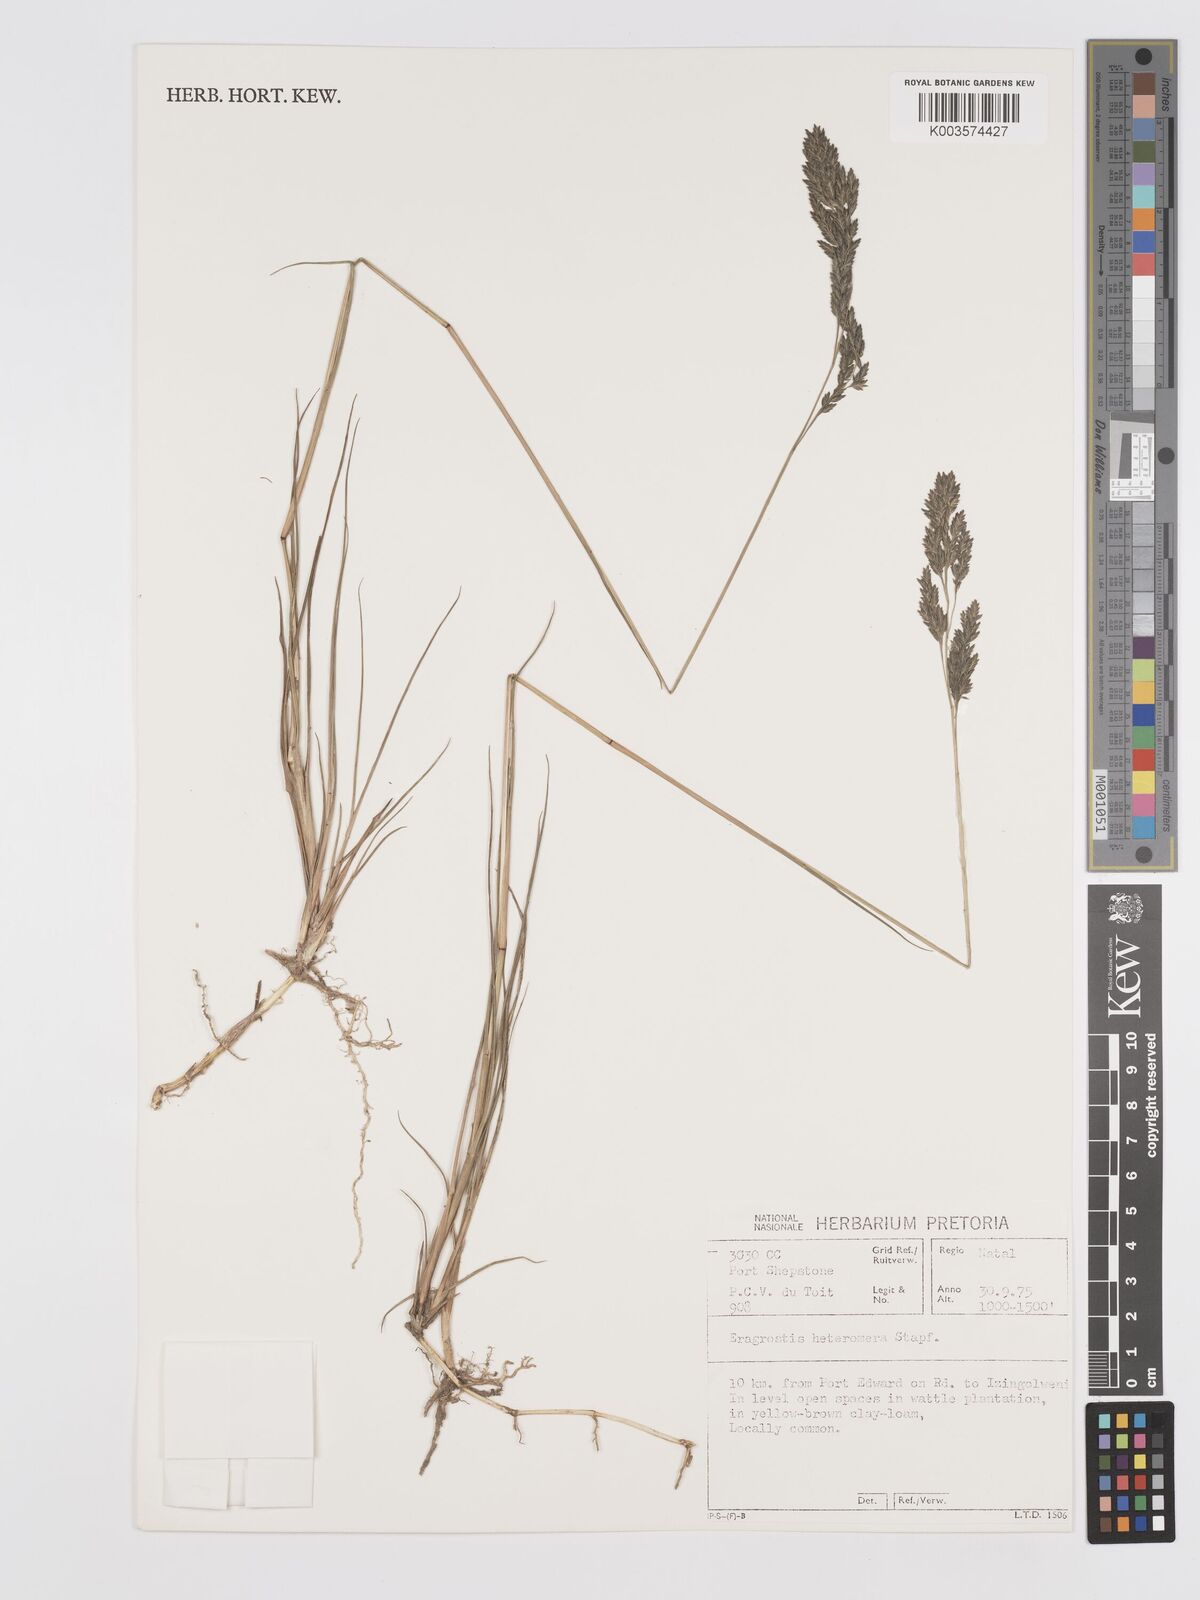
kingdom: Plantae
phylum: Tracheophyta
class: Liliopsida
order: Poales
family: Poaceae
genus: Eragrostis
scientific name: Eragrostis heteromera
